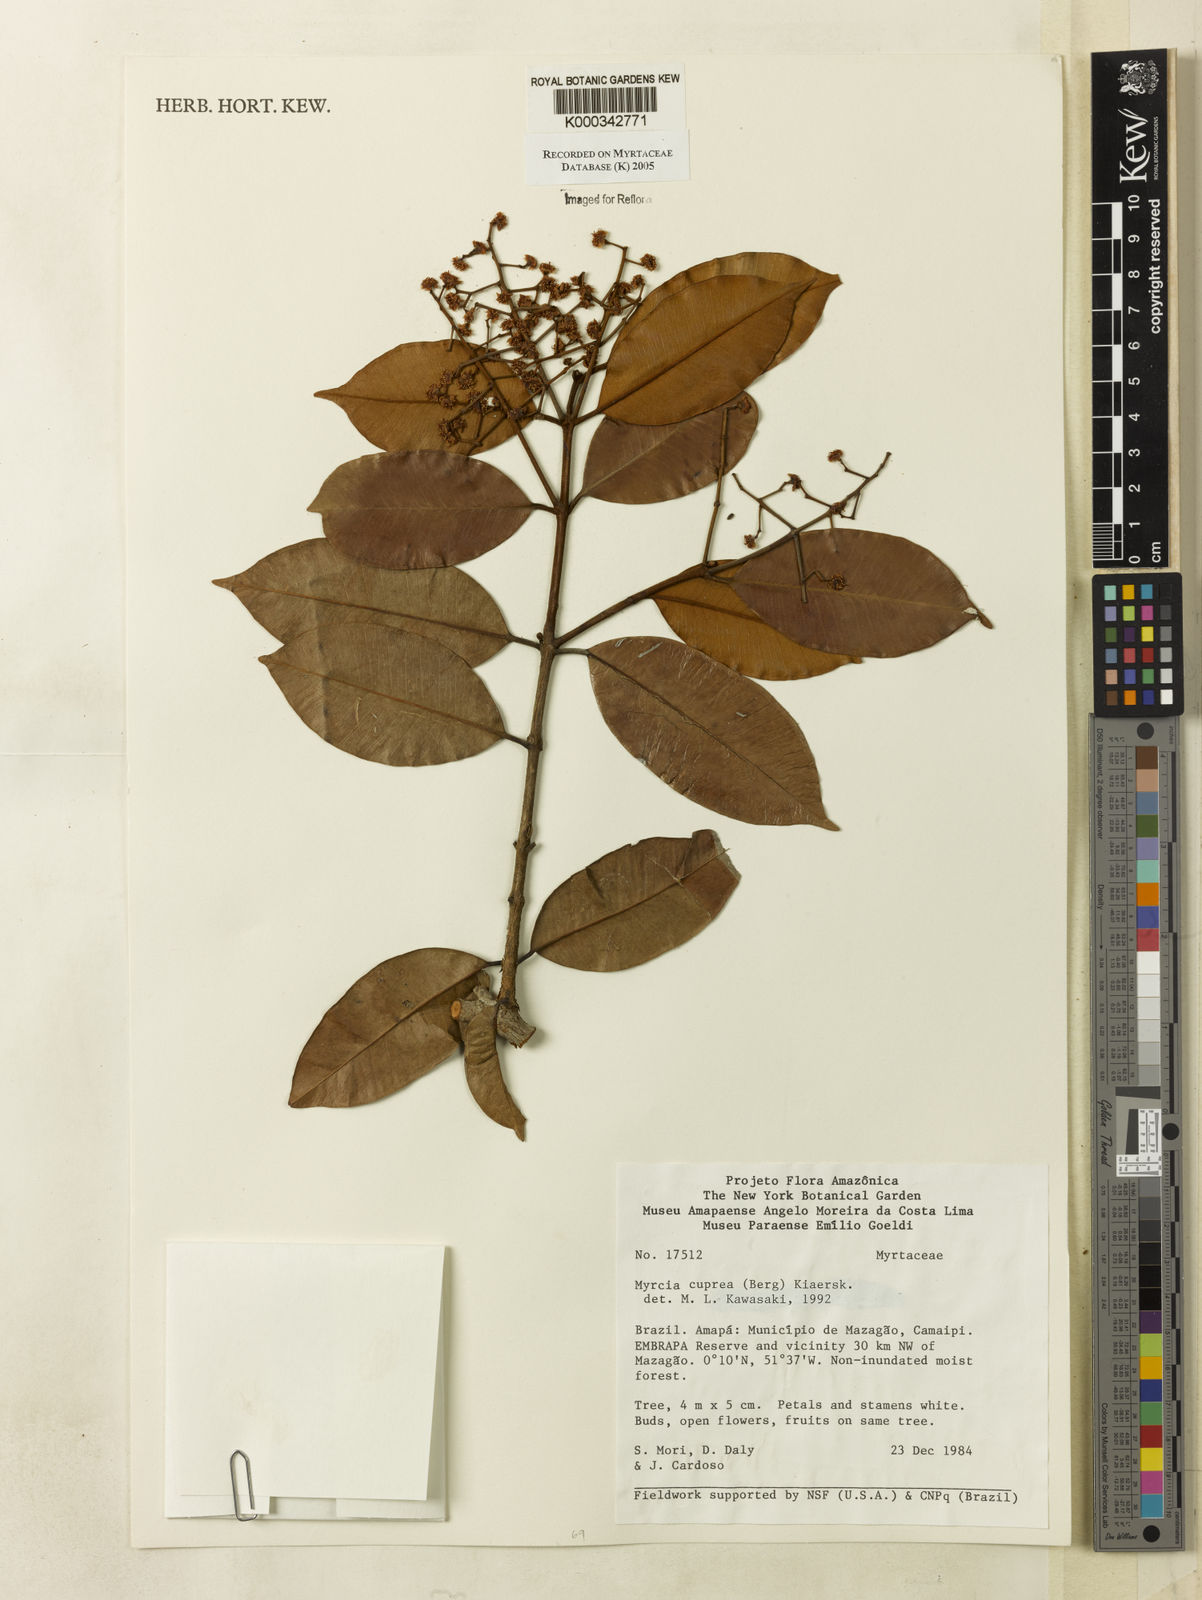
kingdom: Plantae
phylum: Tracheophyta
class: Magnoliopsida
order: Myrtales
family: Myrtaceae
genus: Myrcia
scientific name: Myrcia cuprea
